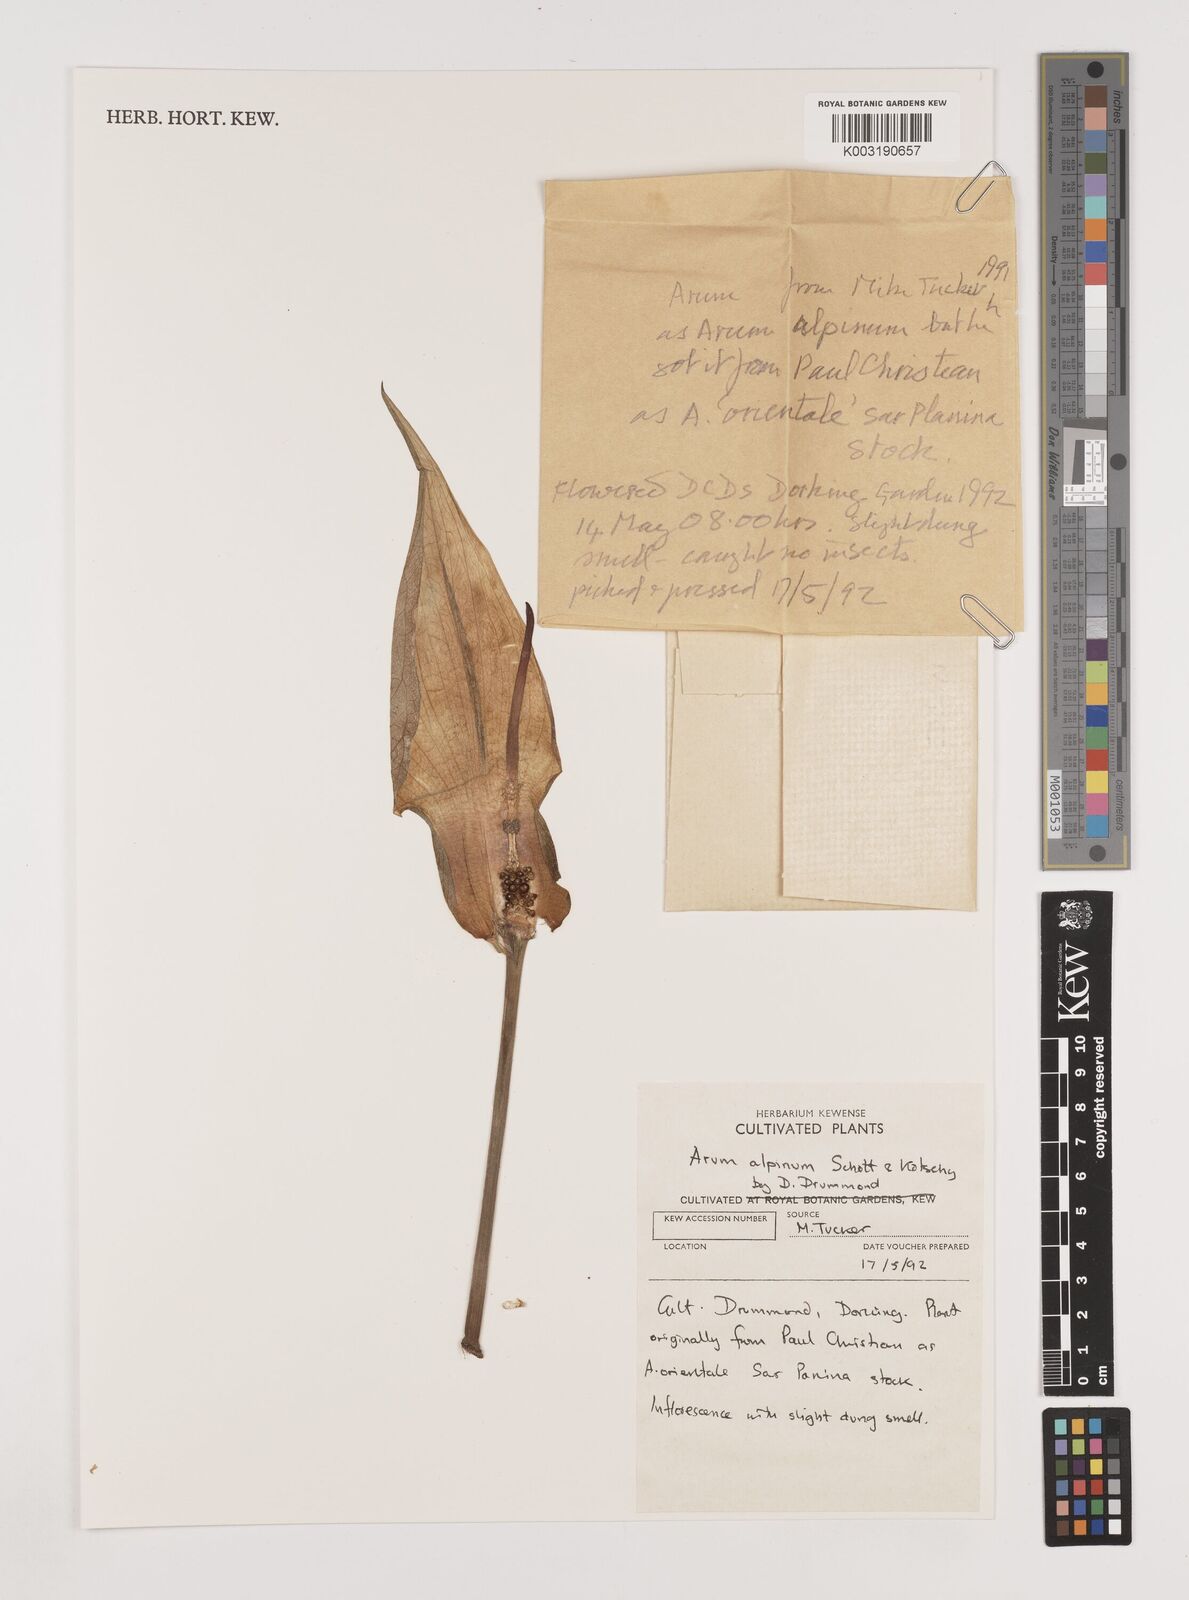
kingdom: Plantae
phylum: Tracheophyta
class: Liliopsida
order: Alismatales
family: Araceae
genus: Arum
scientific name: Arum cylindraceum
